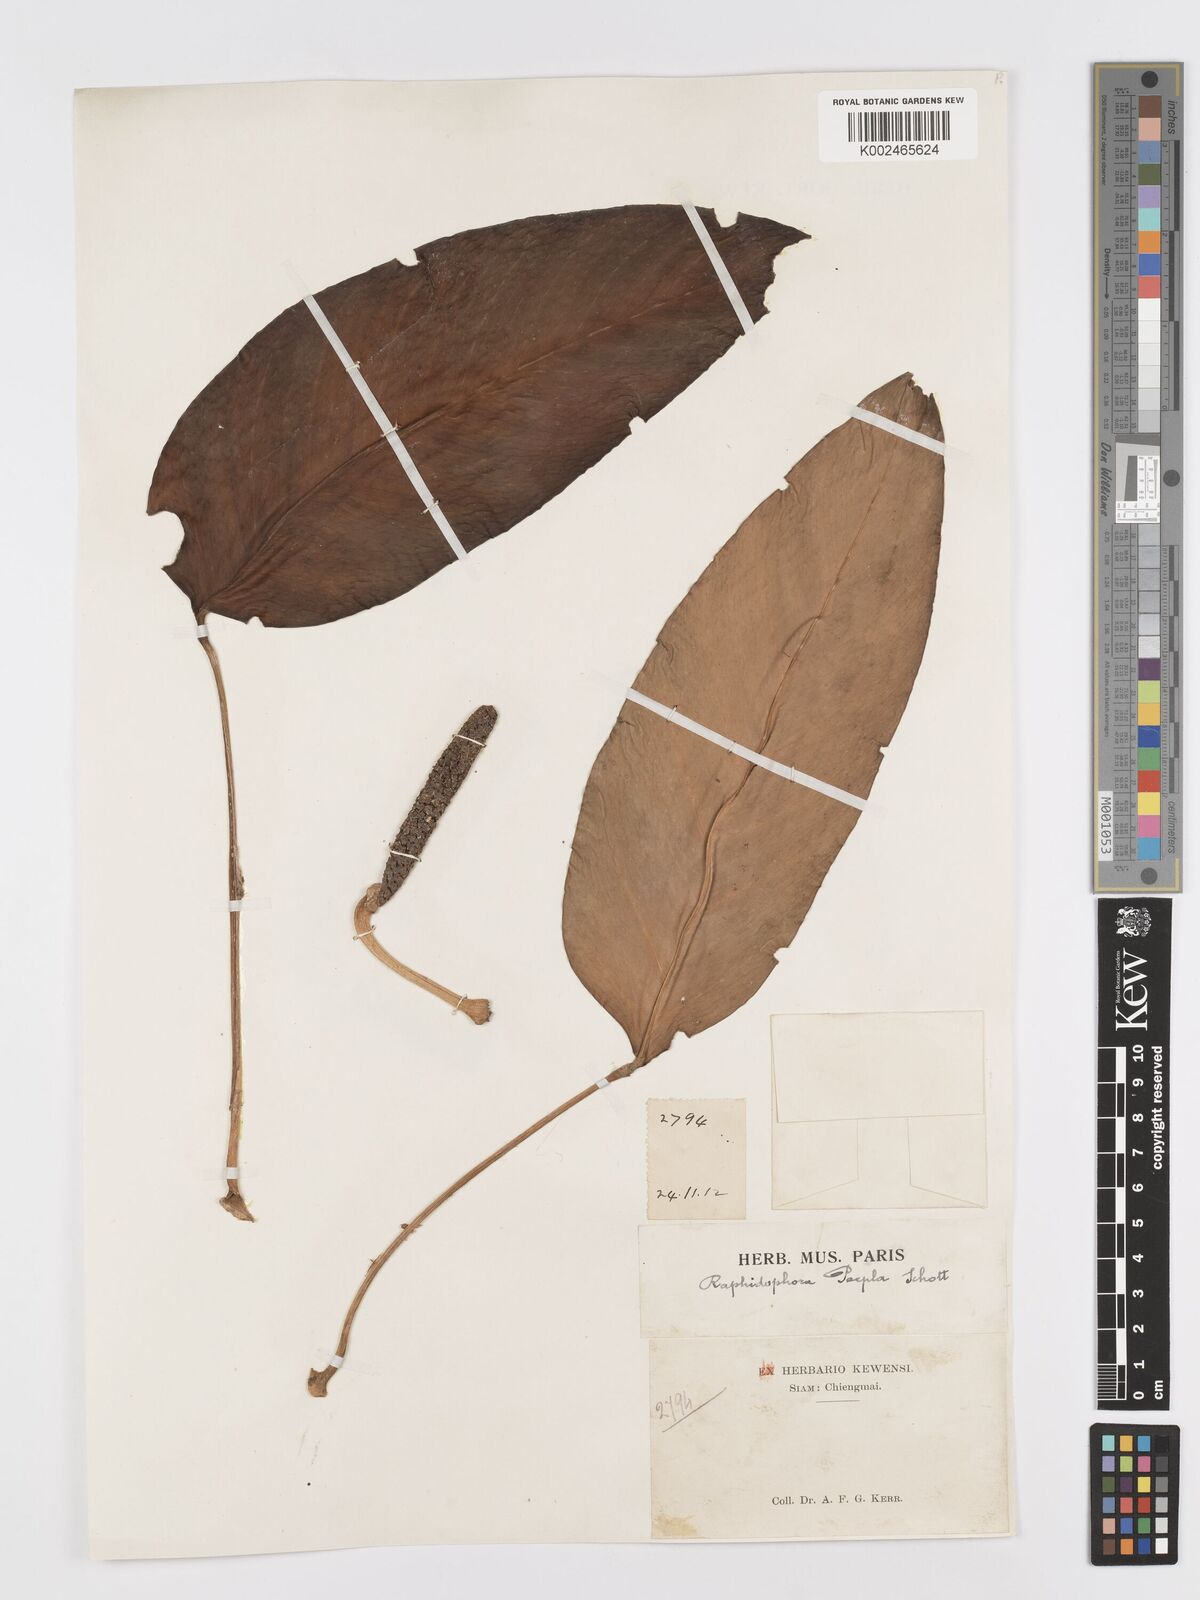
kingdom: Plantae
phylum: Tracheophyta
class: Liliopsida
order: Alismatales
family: Araceae
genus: Rhaphidophora
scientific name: Rhaphidophora peepla
